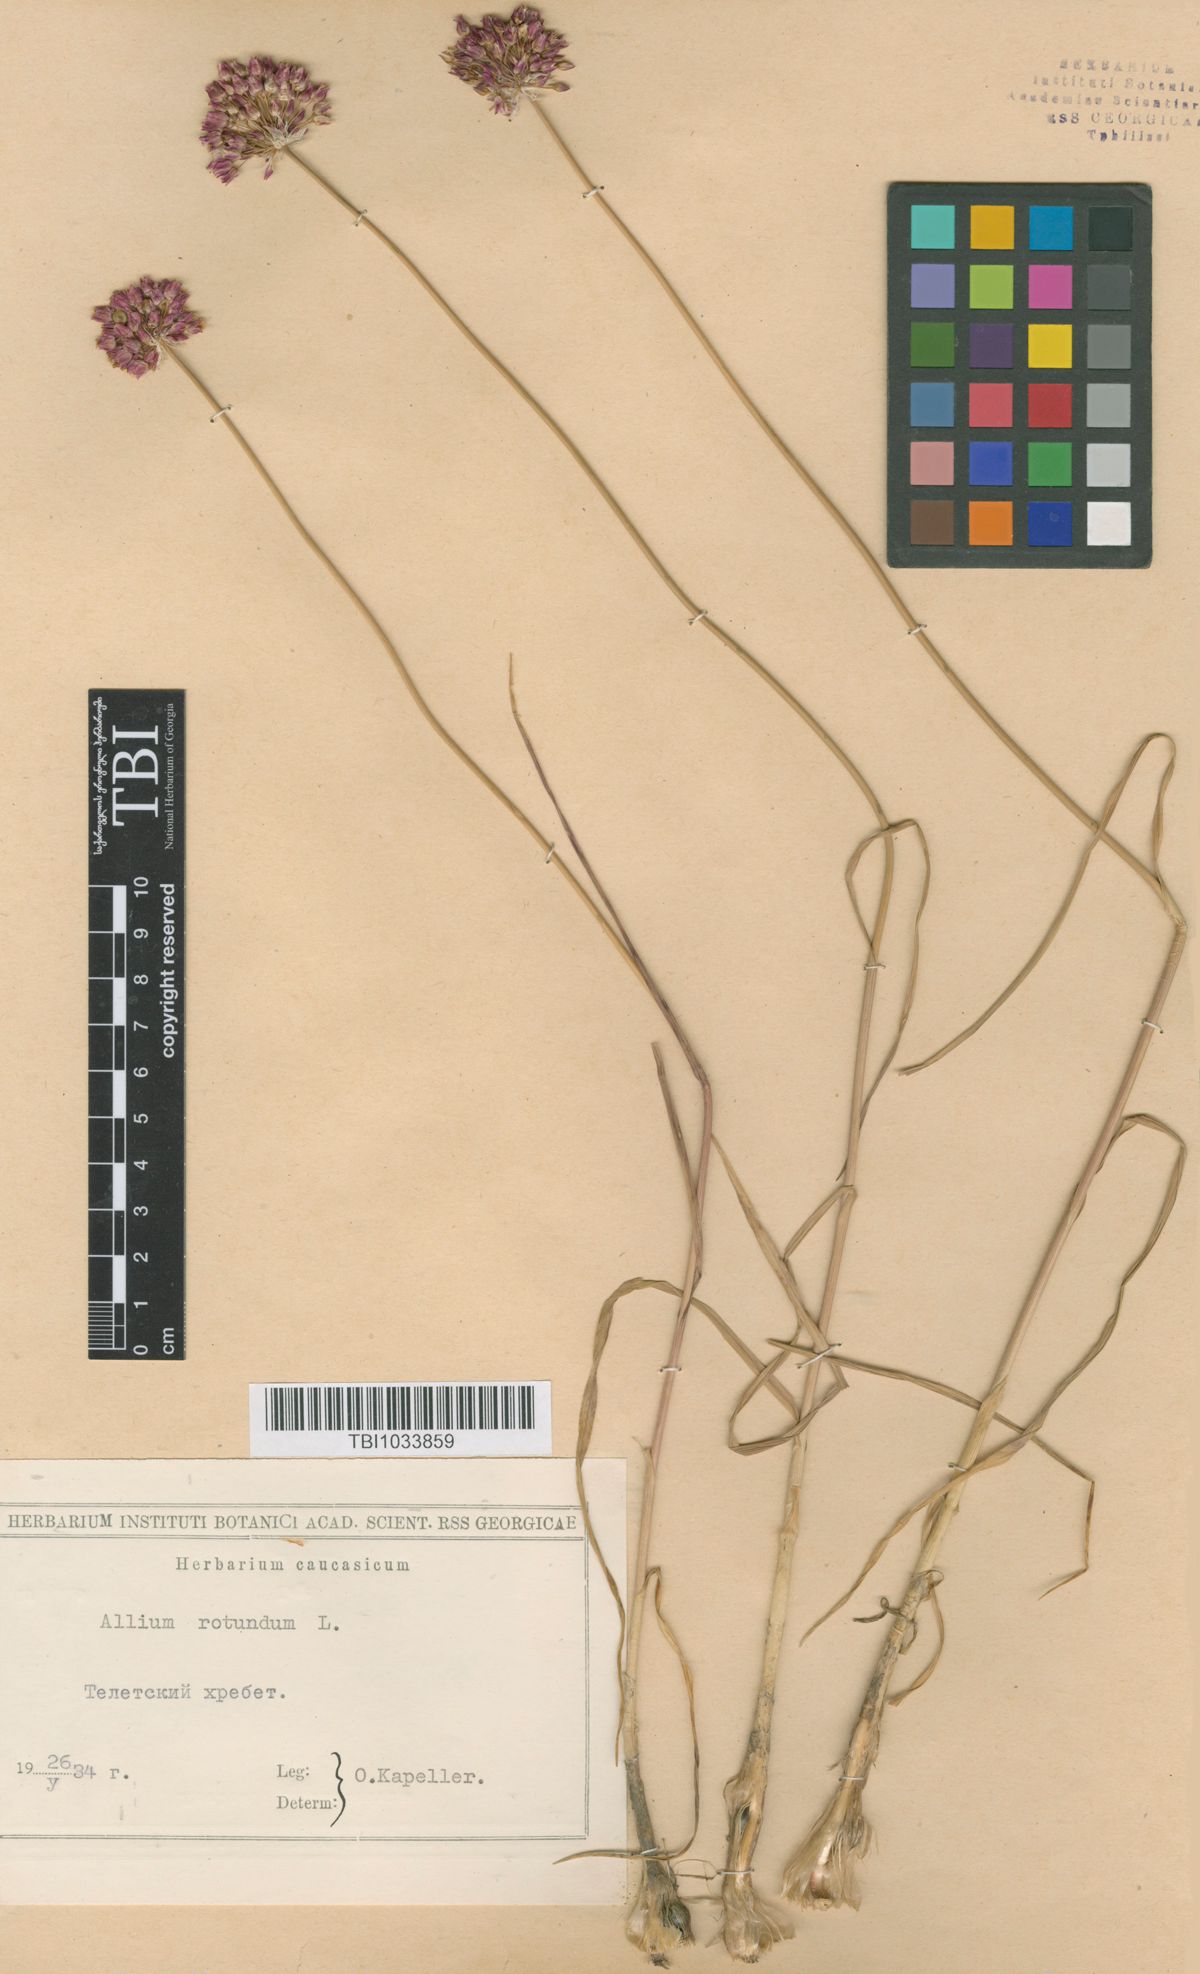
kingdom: Plantae
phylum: Tracheophyta
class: Liliopsida
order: Asparagales
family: Amaryllidaceae
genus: Allium
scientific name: Allium rotundum
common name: Sand leek
